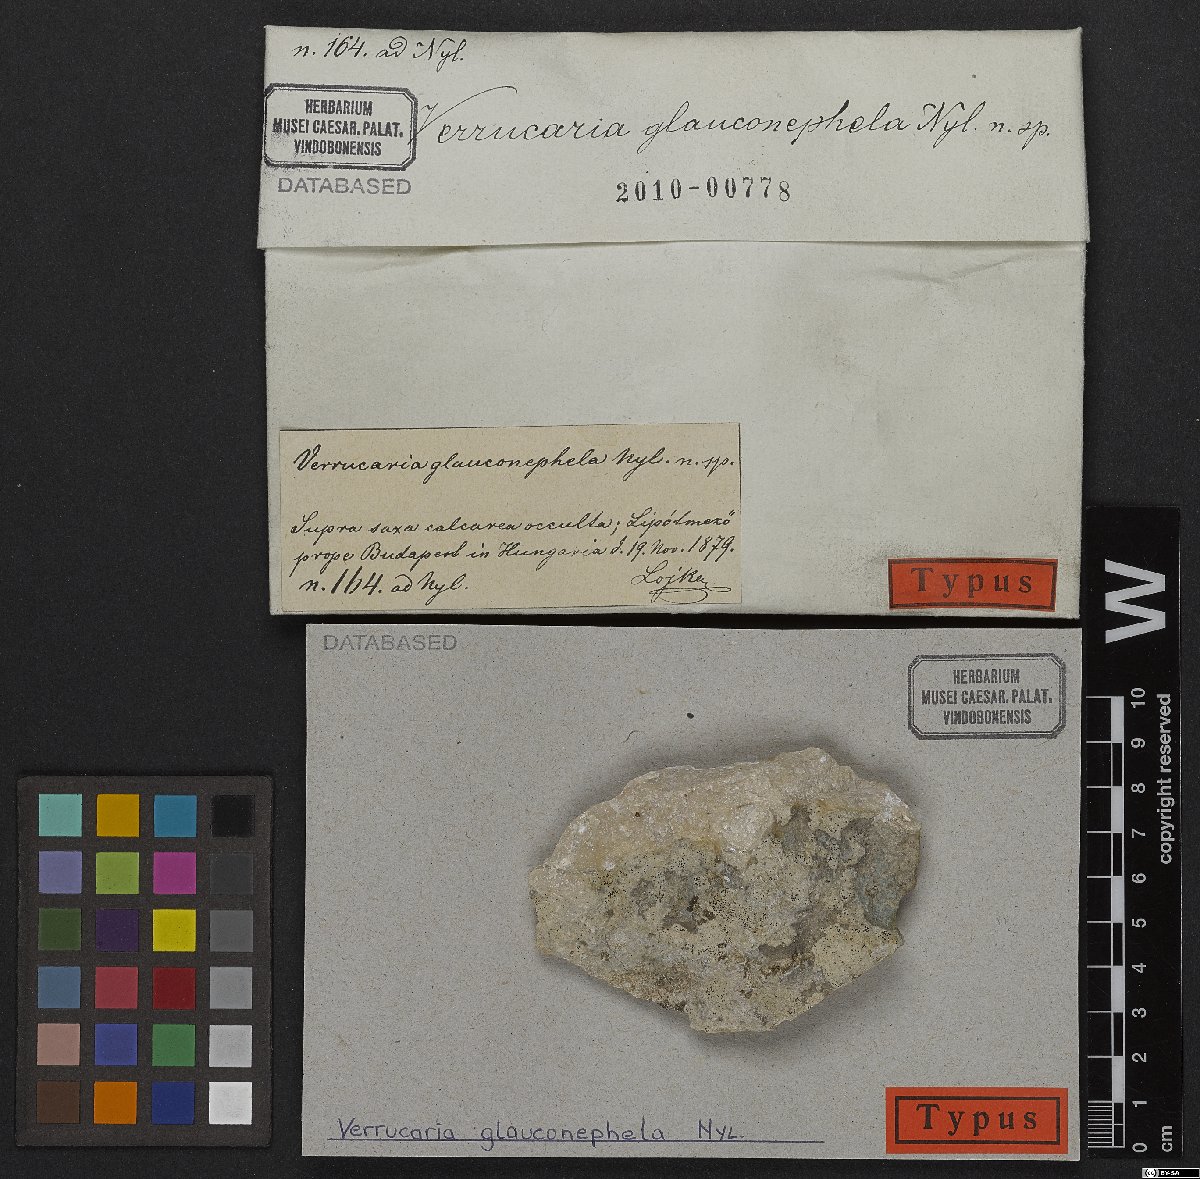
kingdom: Fungi
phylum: Ascomycota
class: Eurotiomycetes
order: Verrucariales
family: Verrucariaceae
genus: Verrucaria
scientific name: Verrucaria glauconephela
